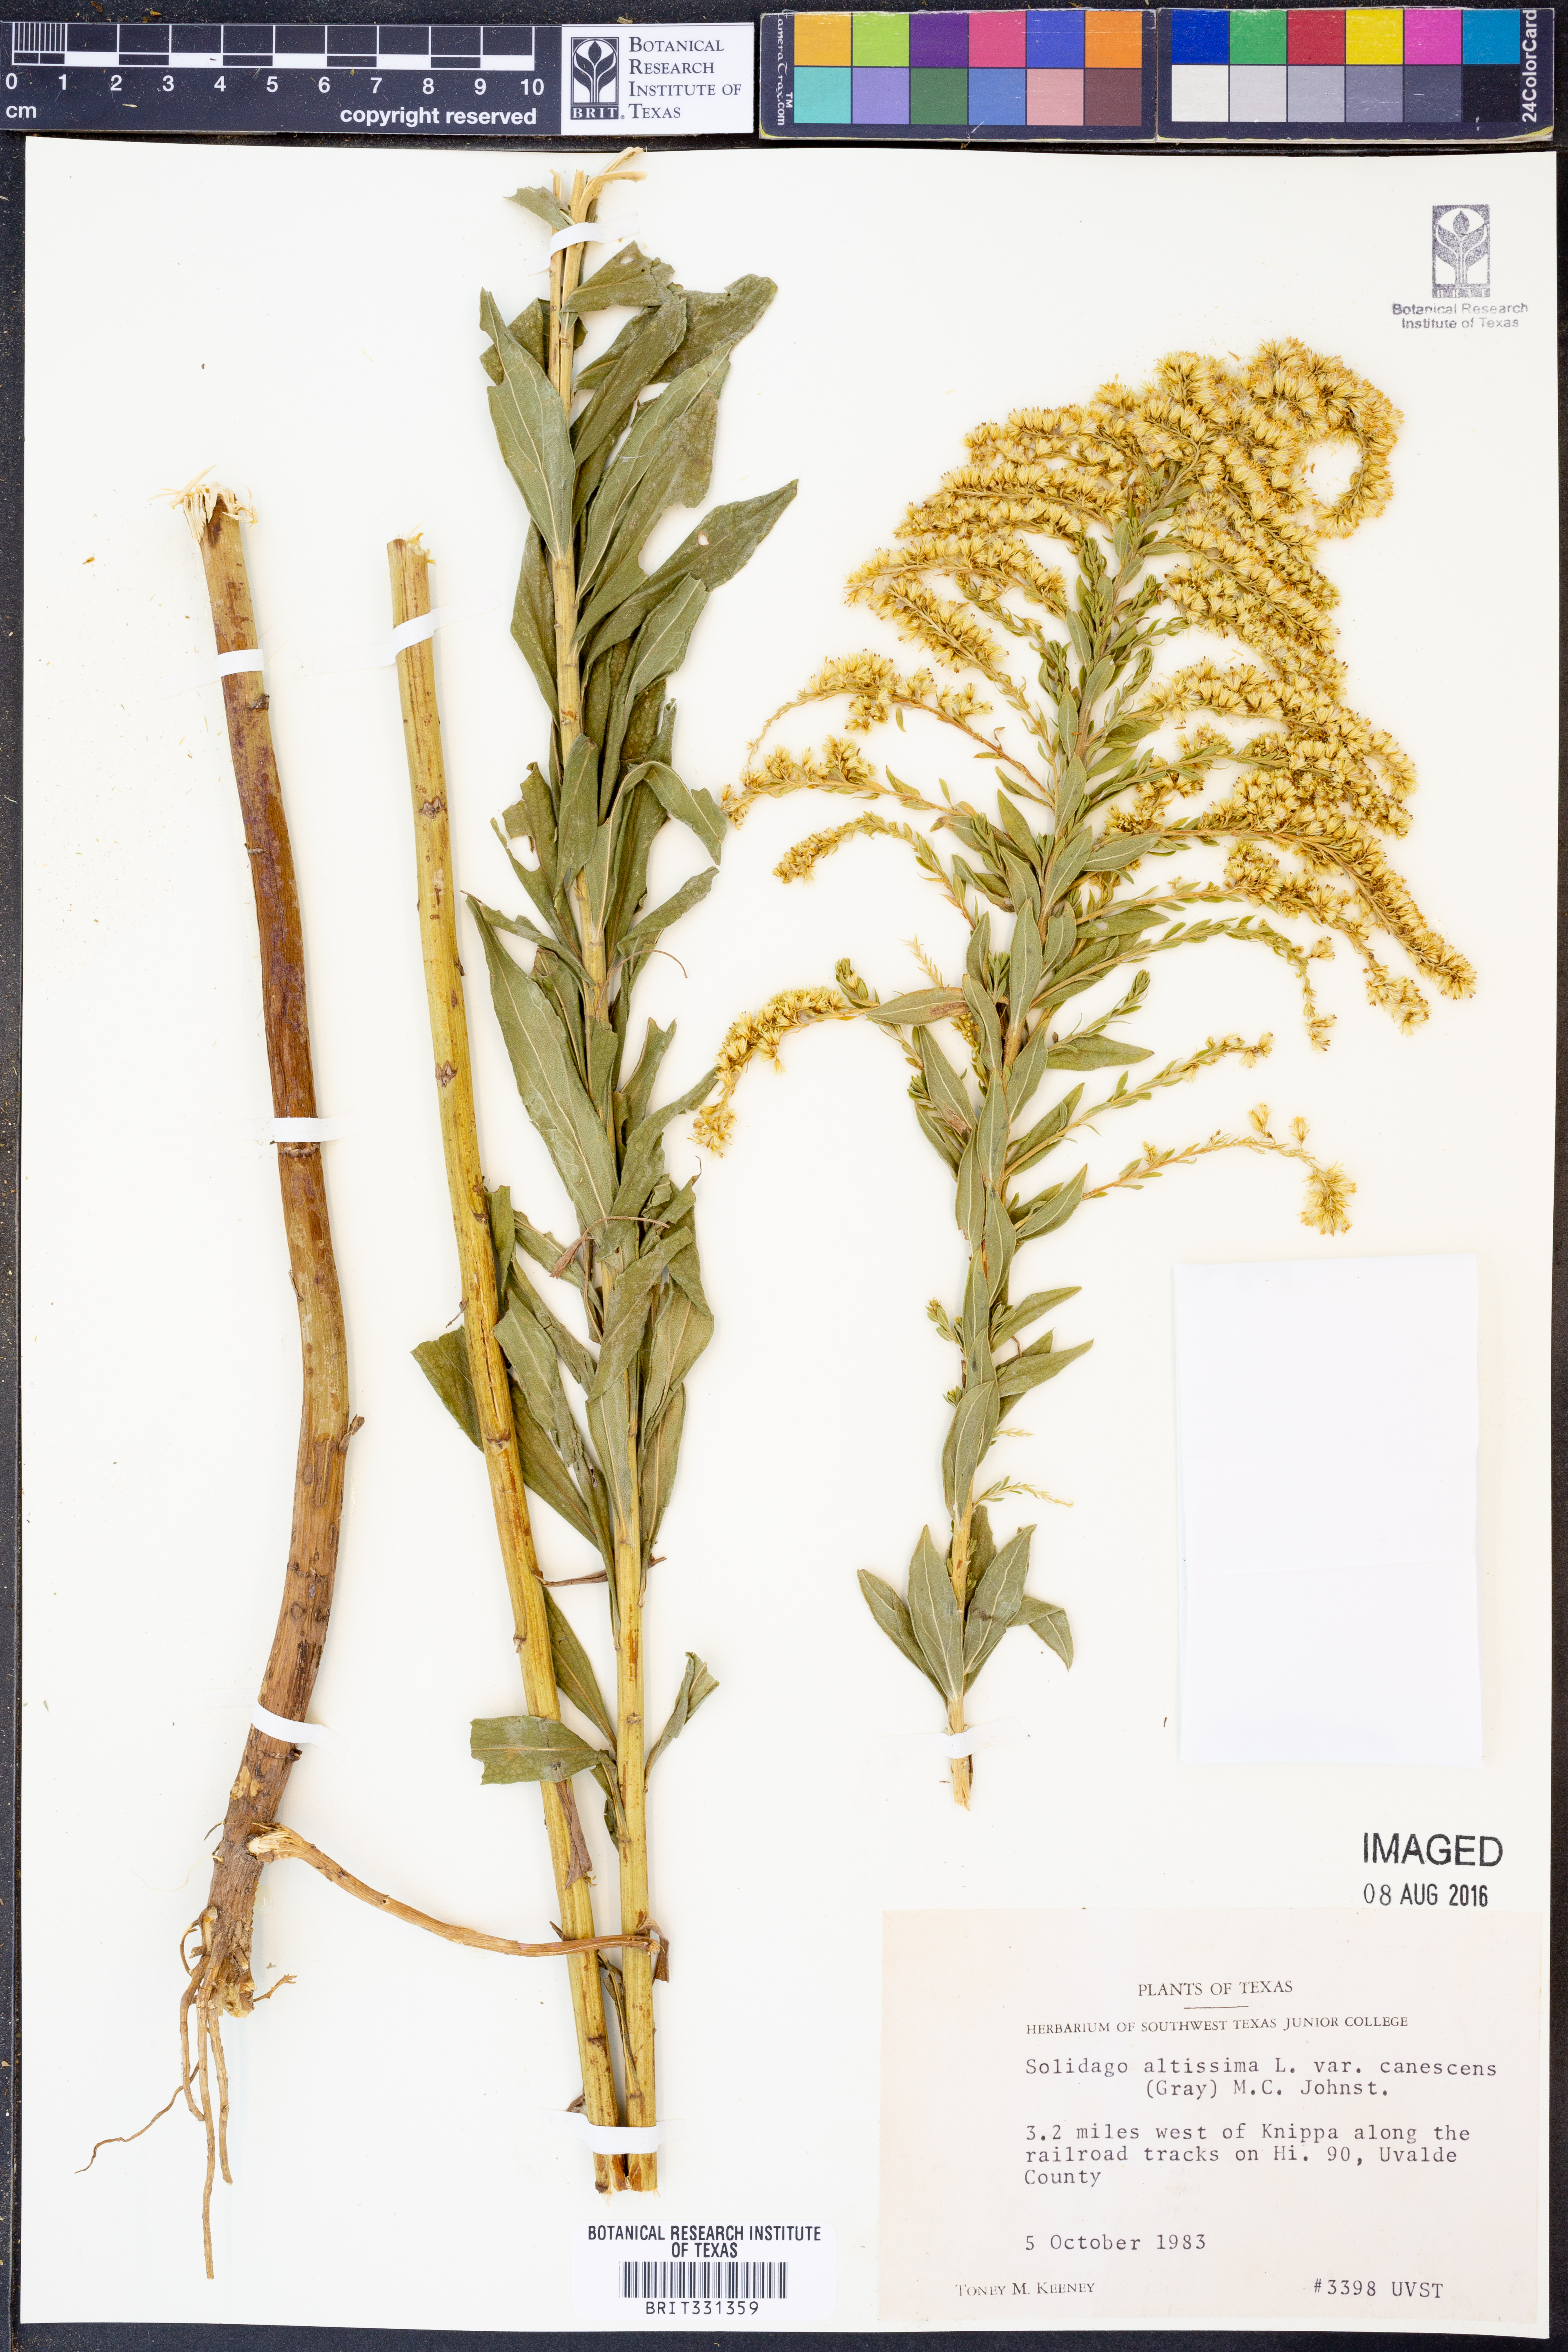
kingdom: Plantae
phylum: Tracheophyta
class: Magnoliopsida
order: Asterales
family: Asteraceae
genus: Solidago
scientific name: Solidago altissima
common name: Late goldenrod
